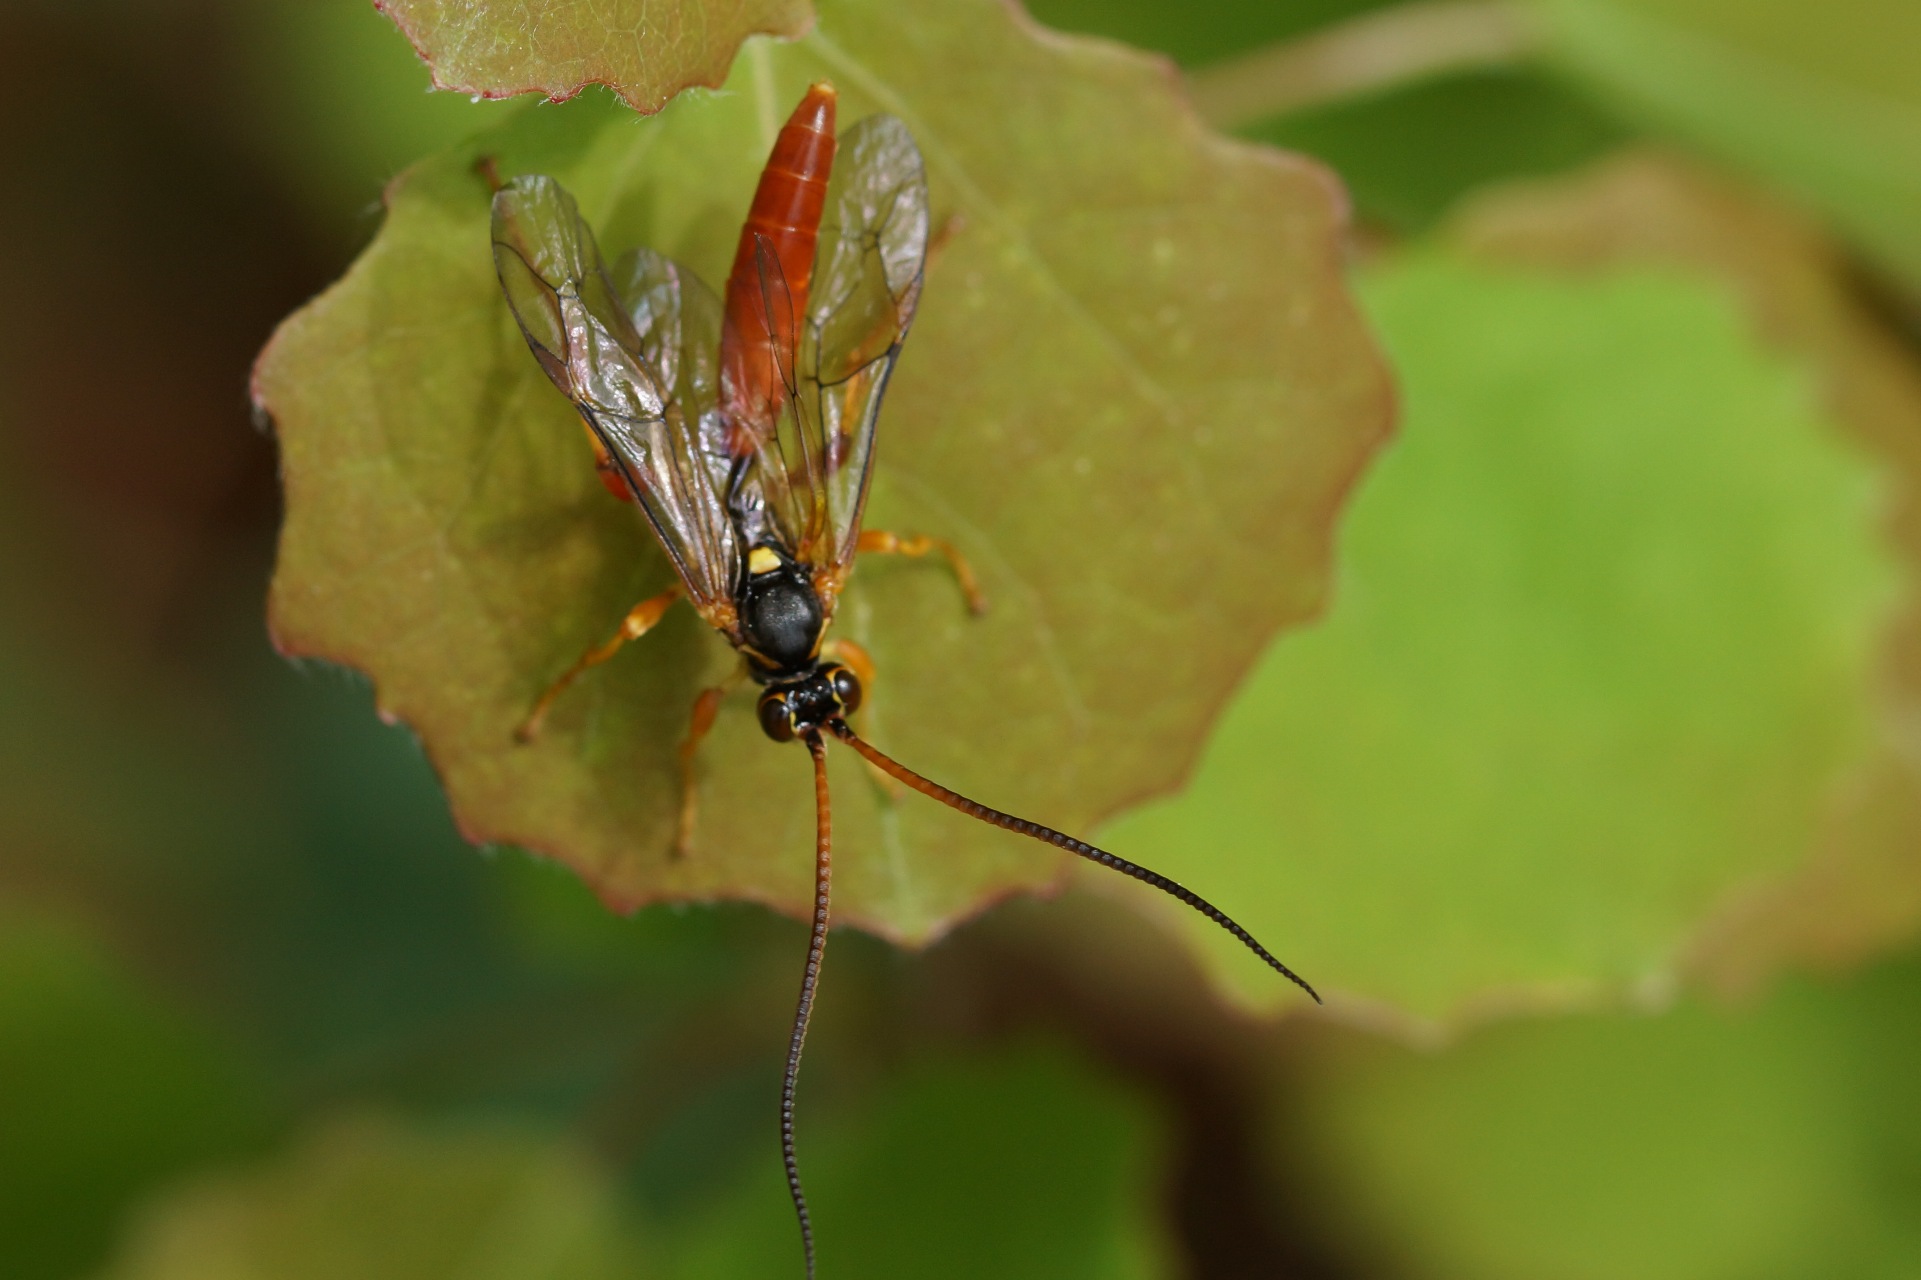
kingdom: Animalia
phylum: Arthropoda
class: Insecta
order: Hymenoptera
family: Ichneumonidae
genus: Cratichneumon
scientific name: Cratichneumon luteiventris
